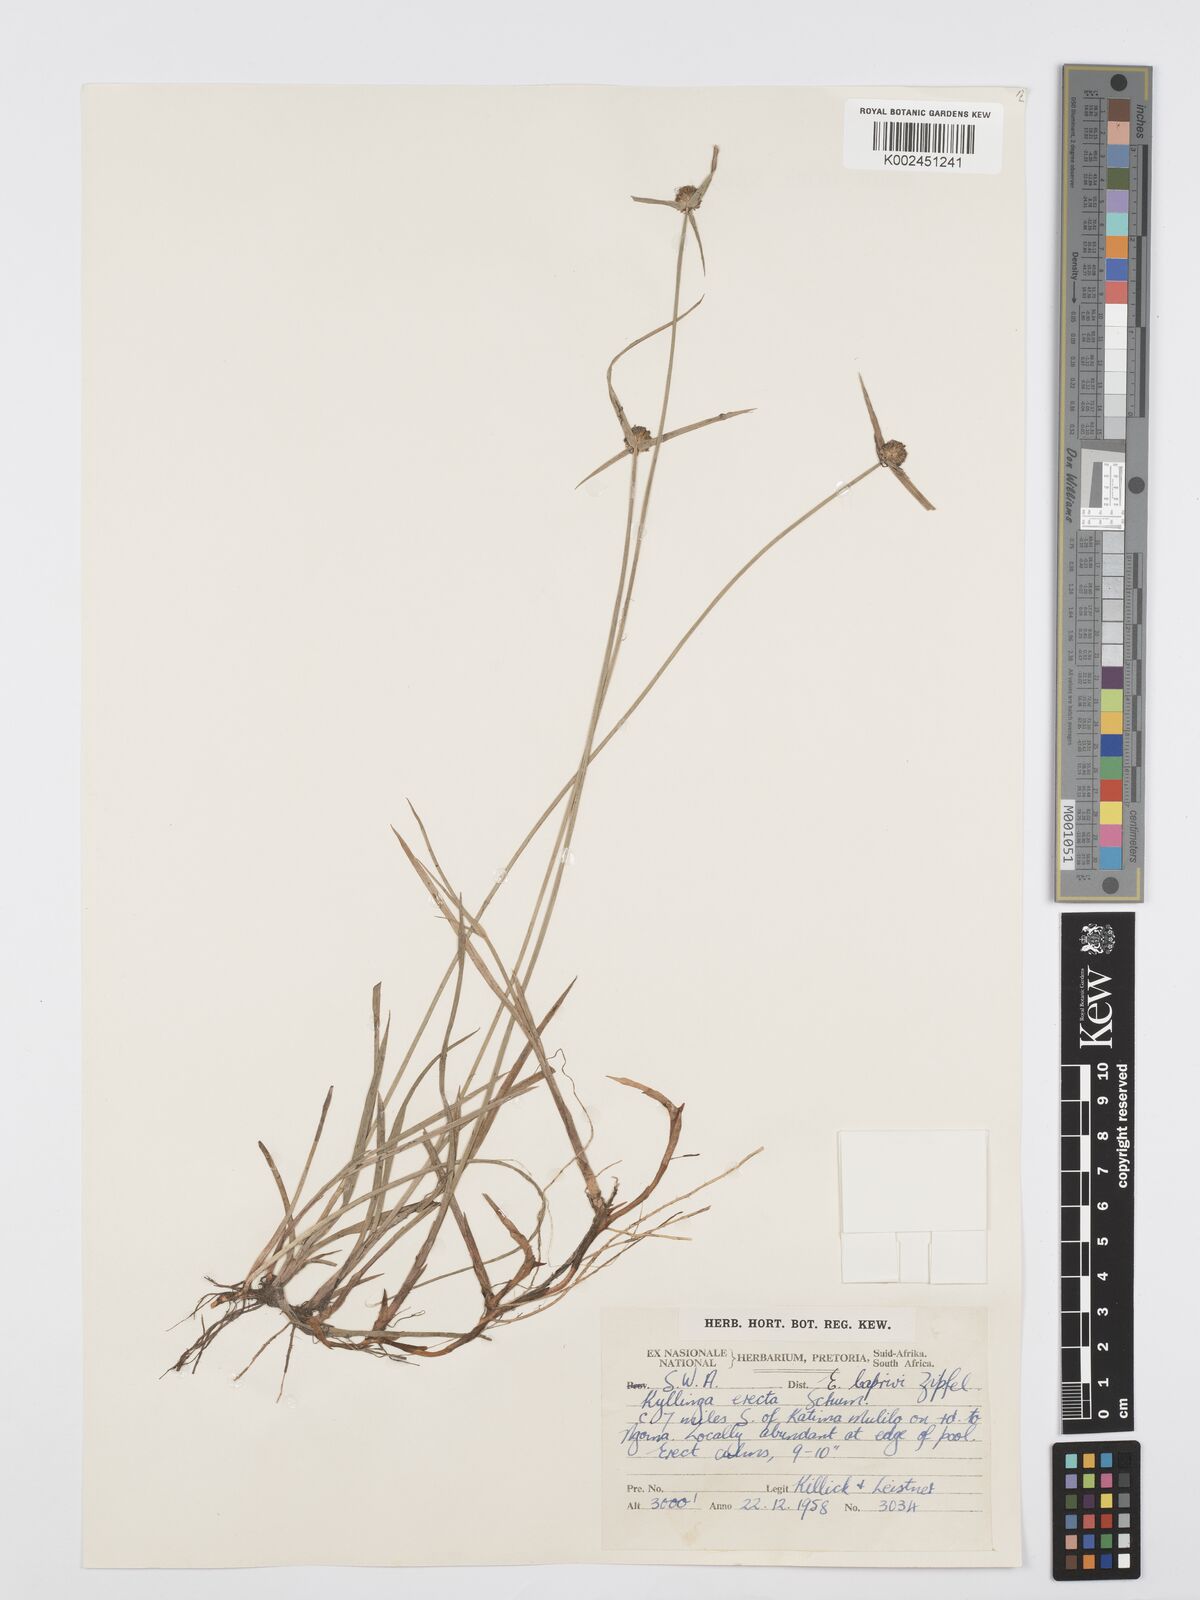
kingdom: Plantae
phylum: Tracheophyta
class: Liliopsida
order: Poales
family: Cyperaceae
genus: Cyperus
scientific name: Cyperus erectus
